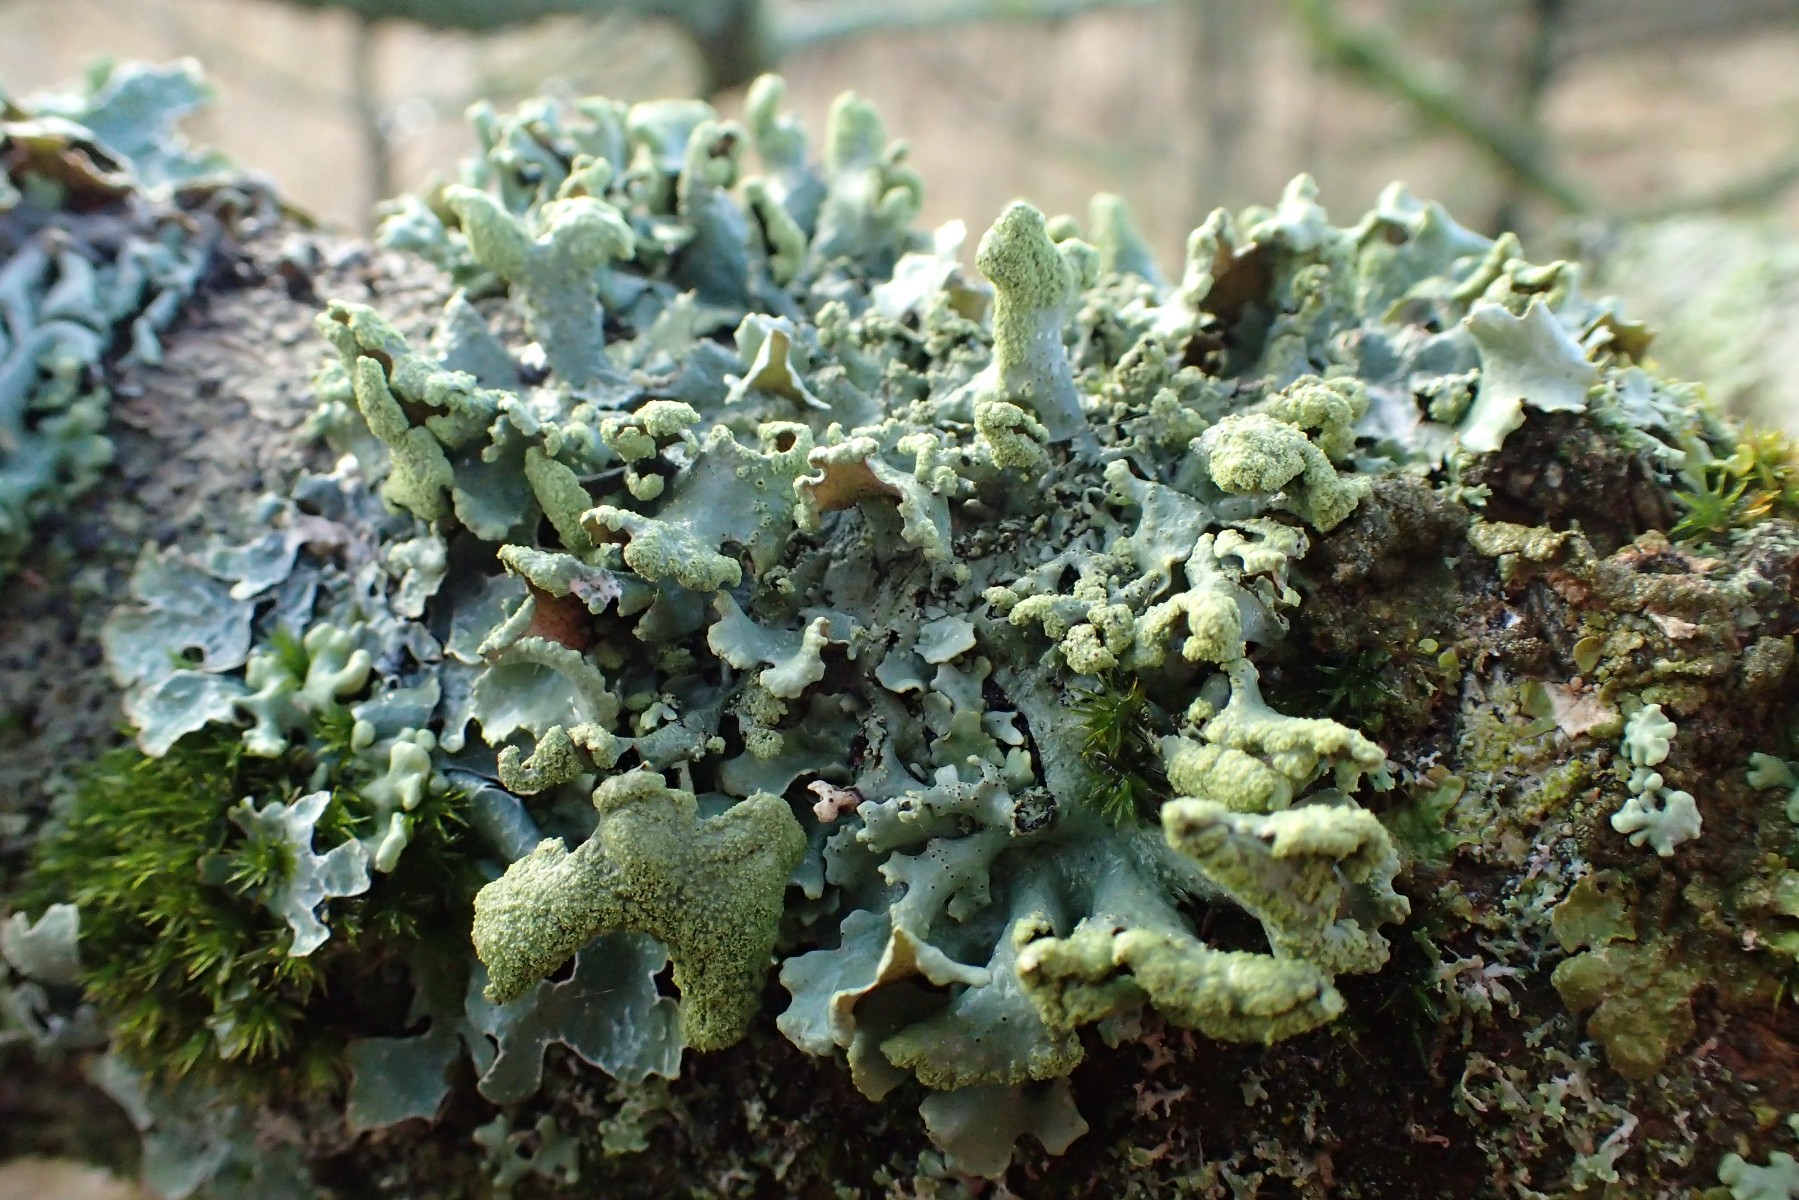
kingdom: Fungi
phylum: Ascomycota
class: Lecanoromycetes
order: Lecanorales
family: Parmeliaceae
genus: Hypotrachyna
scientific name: Hypotrachyna revoluta
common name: bleggrå skållav
